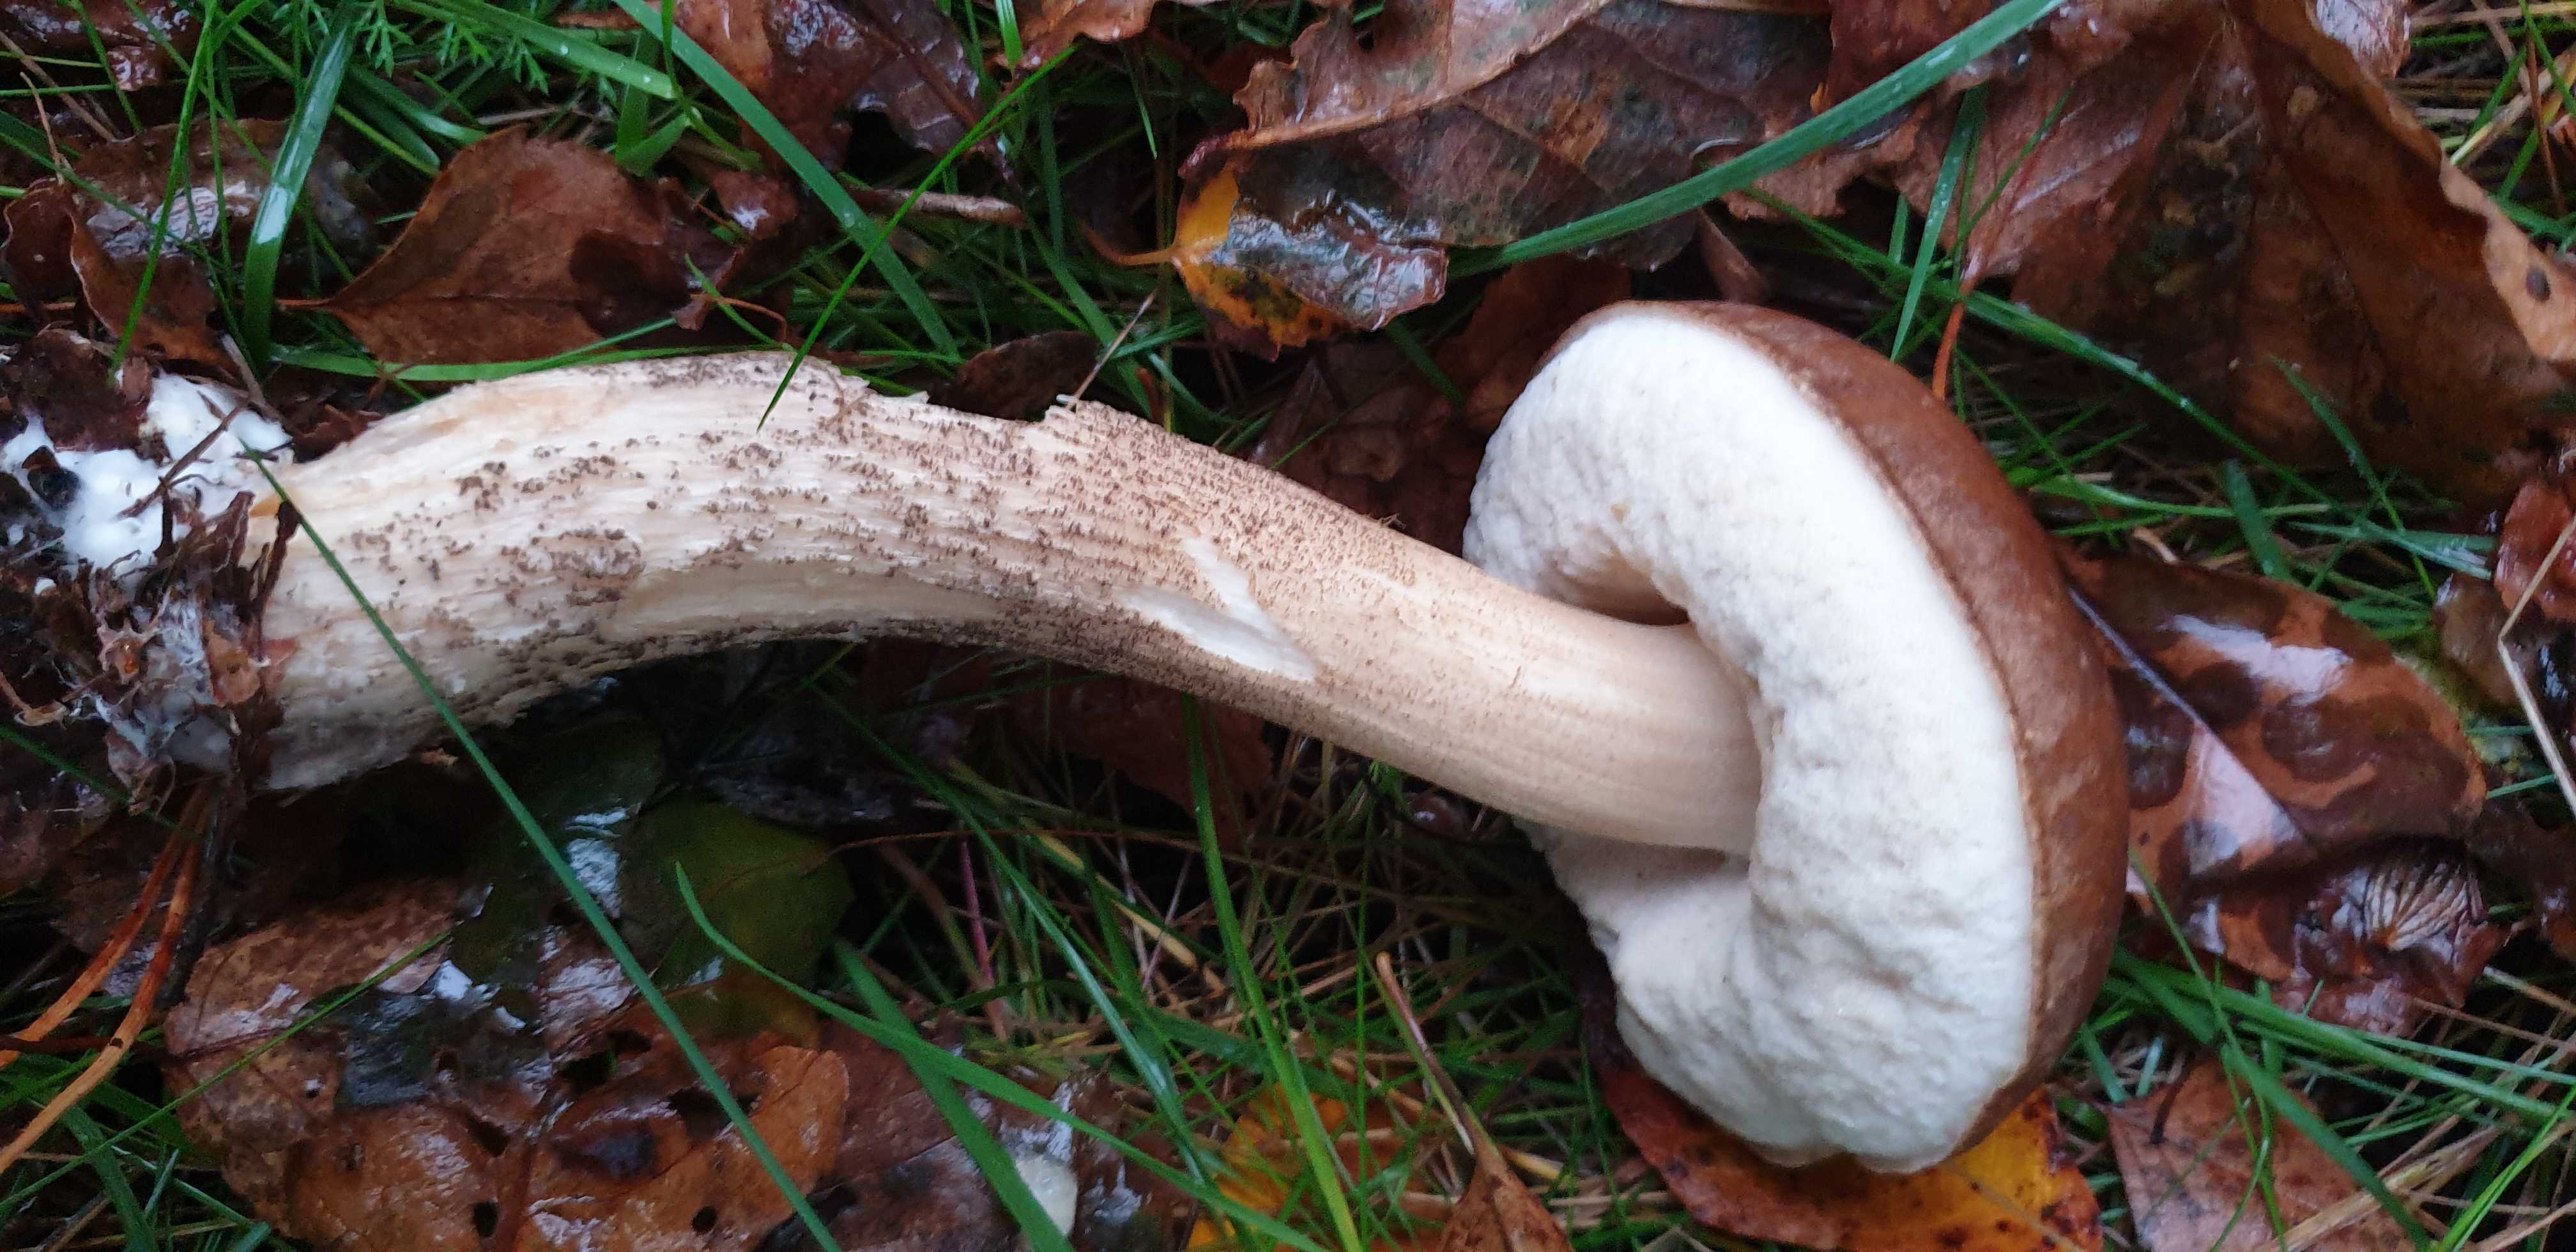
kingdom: Fungi
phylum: Basidiomycota
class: Agaricomycetes
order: Boletales
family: Boletaceae
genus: Leccinum
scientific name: Leccinum scabrum
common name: brun skælrørhat
